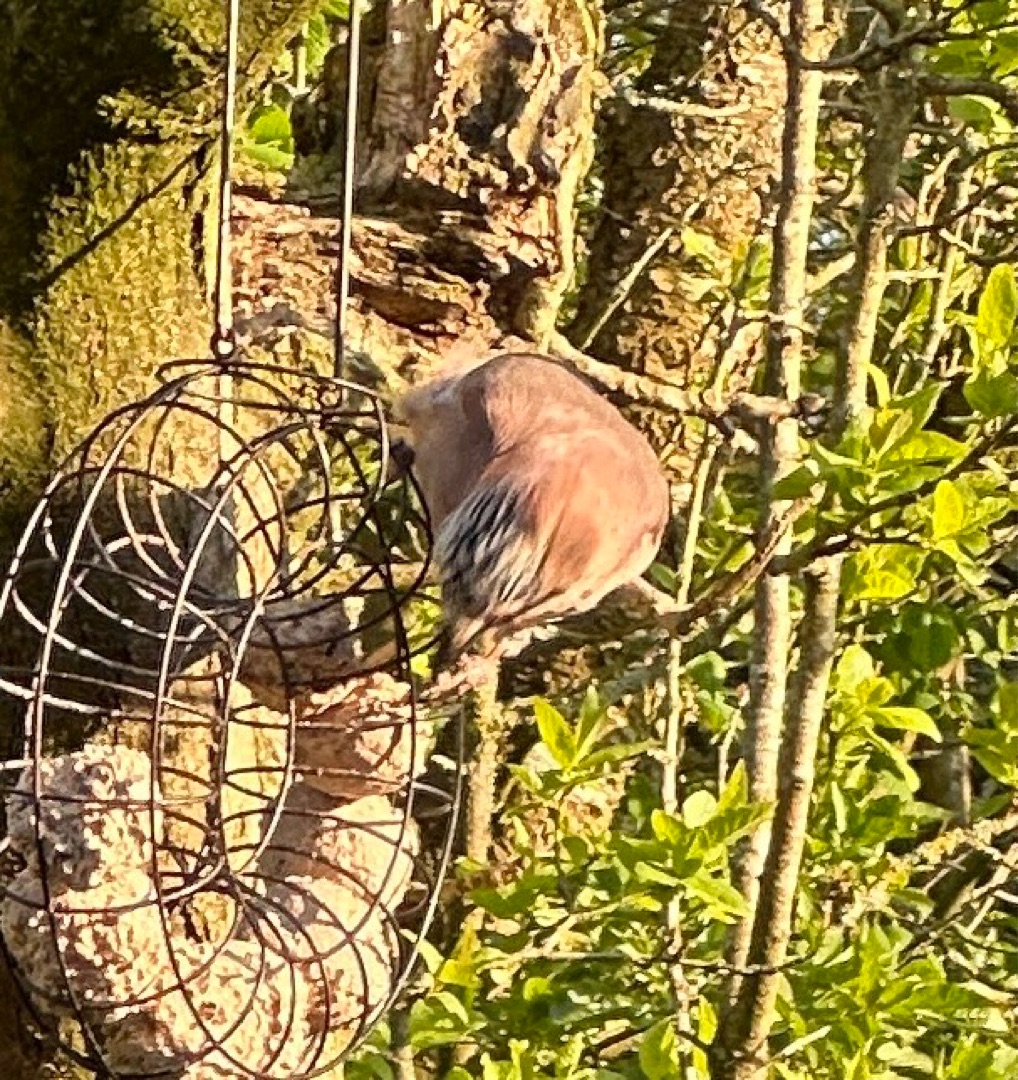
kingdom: Animalia
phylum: Chordata
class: Aves
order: Passeriformes
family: Corvidae
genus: Garrulus
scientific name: Garrulus glandarius
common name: Skovskade
